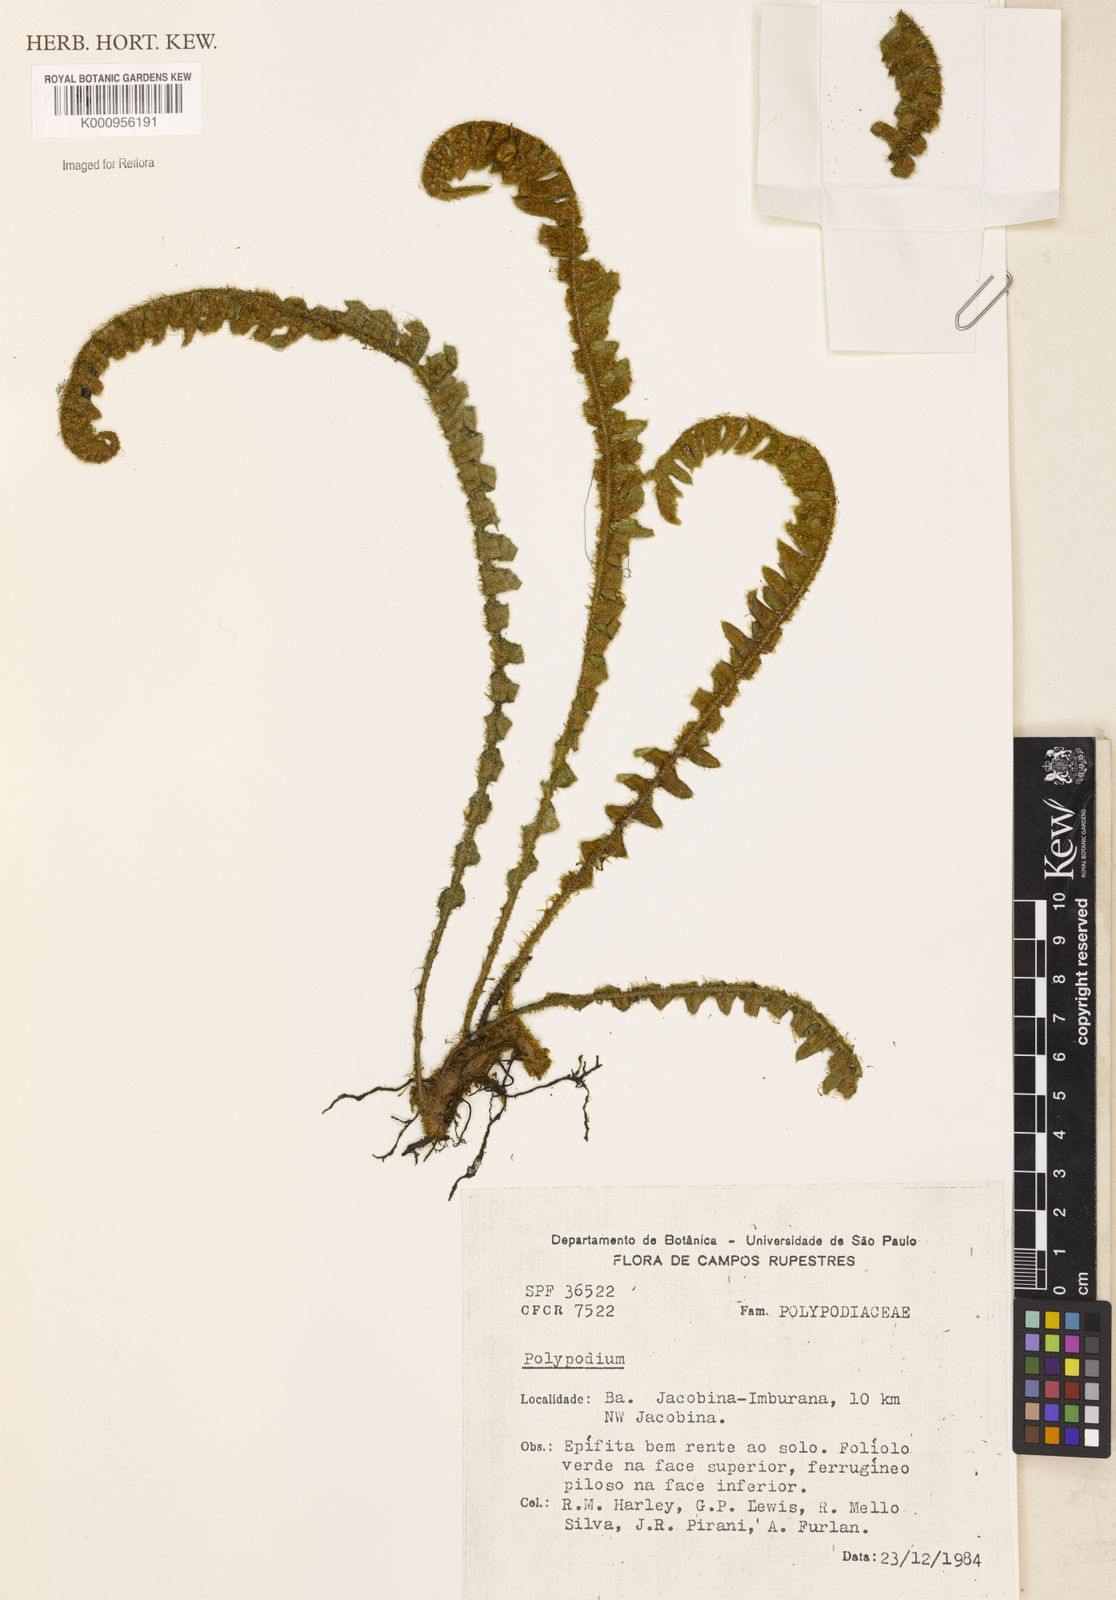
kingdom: Plantae
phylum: Tracheophyta
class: Polypodiopsida
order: Polypodiales
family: Polypodiaceae
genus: Pleopeltis
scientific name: Pleopeltis lepidopteris
